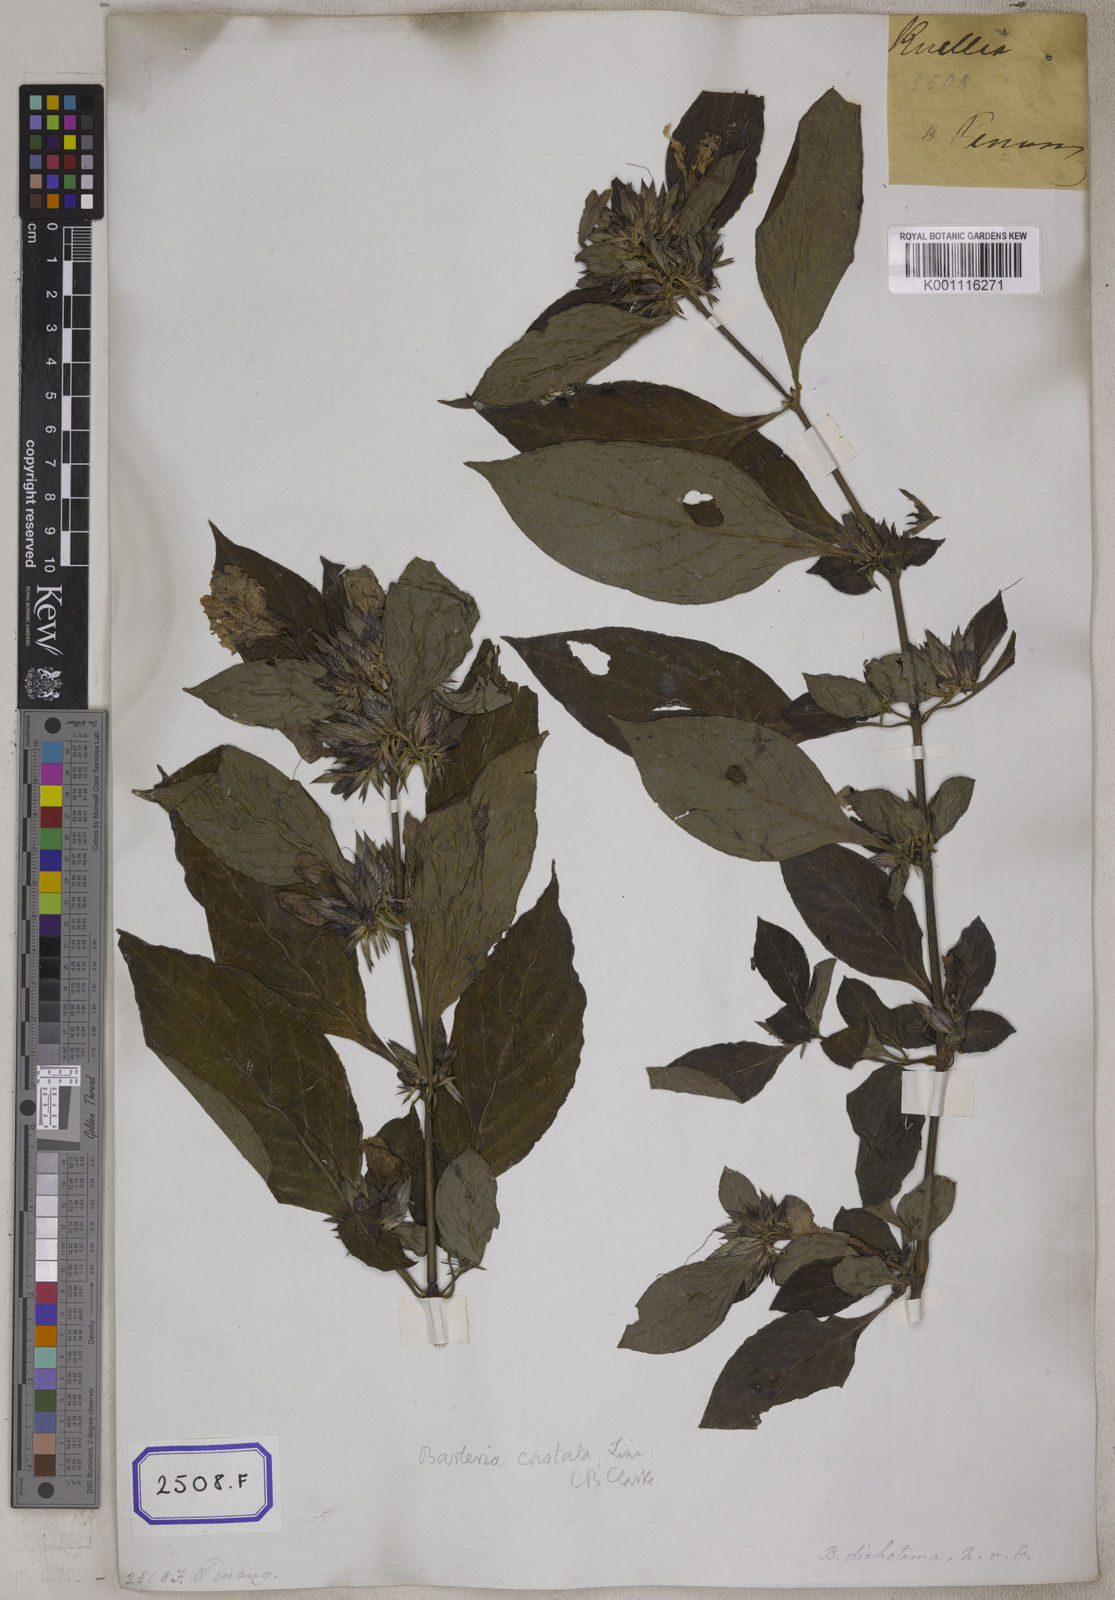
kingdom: Plantae
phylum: Tracheophyta
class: Magnoliopsida
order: Lamiales
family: Acanthaceae
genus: Barleria
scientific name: Barleria cristata
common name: Crested philippine violet
